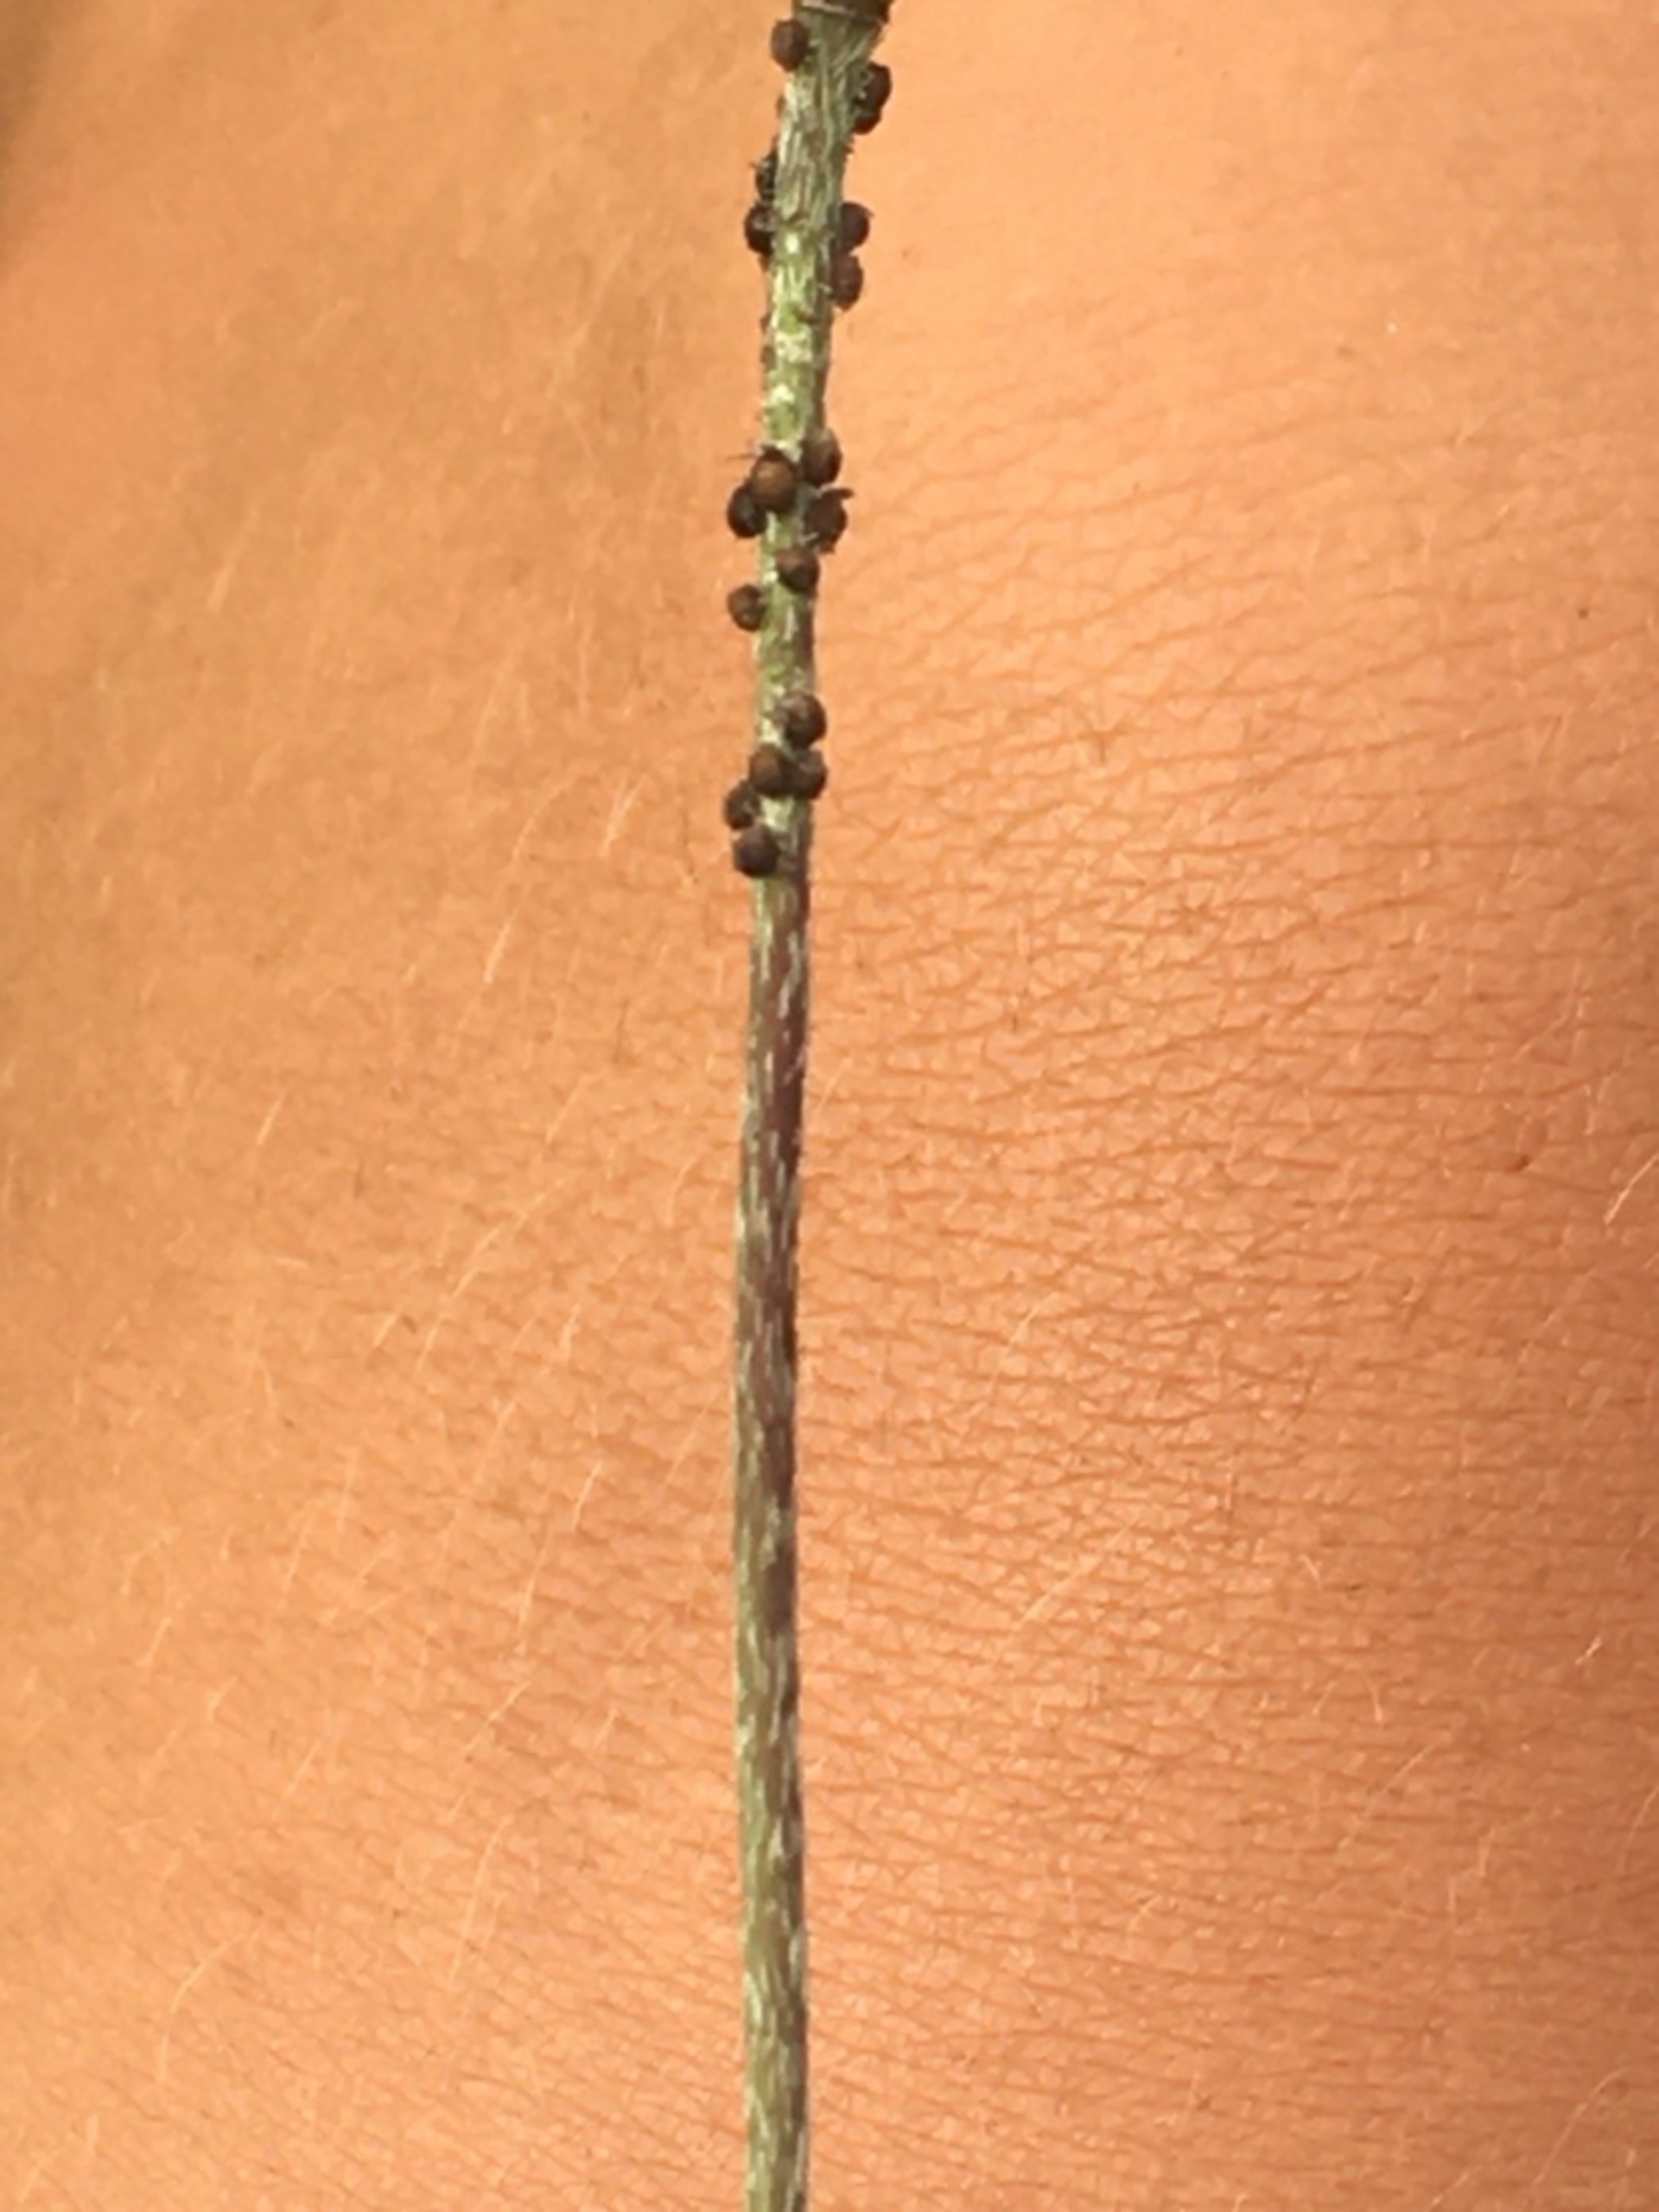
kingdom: Plantae
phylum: Tracheophyta
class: Magnoliopsida
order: Ranunculales
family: Papaveraceae
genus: Papaver
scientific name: Papaver dubium
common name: Gærde-valmue
